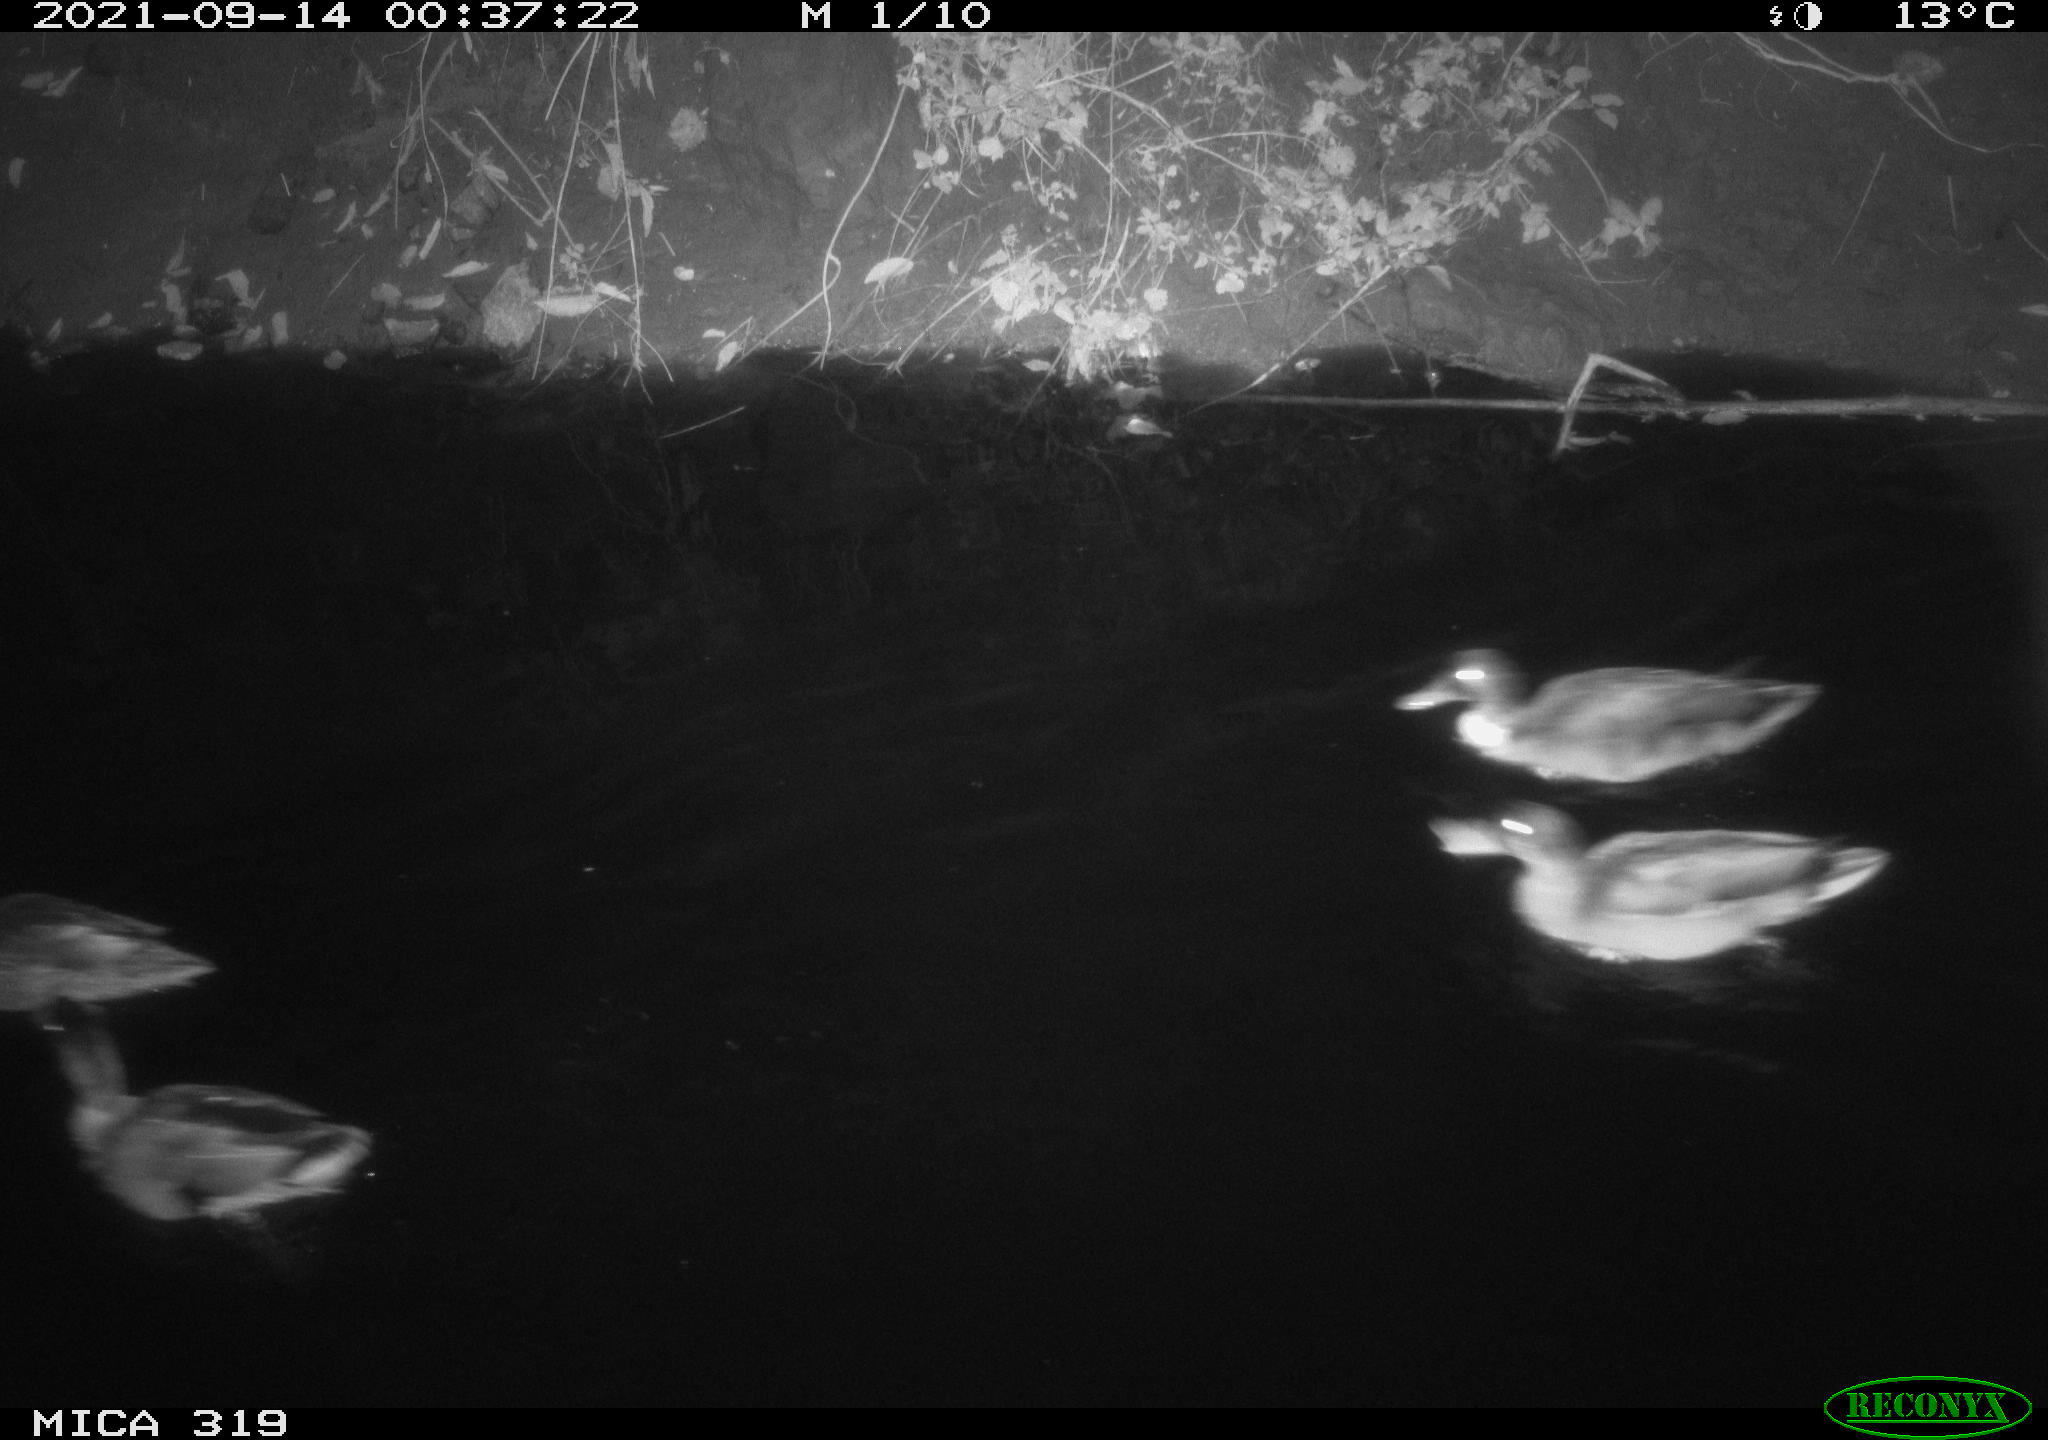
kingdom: Animalia
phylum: Chordata
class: Aves
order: Anseriformes
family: Anatidae
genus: Anas
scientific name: Anas platyrhynchos
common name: Mallard
